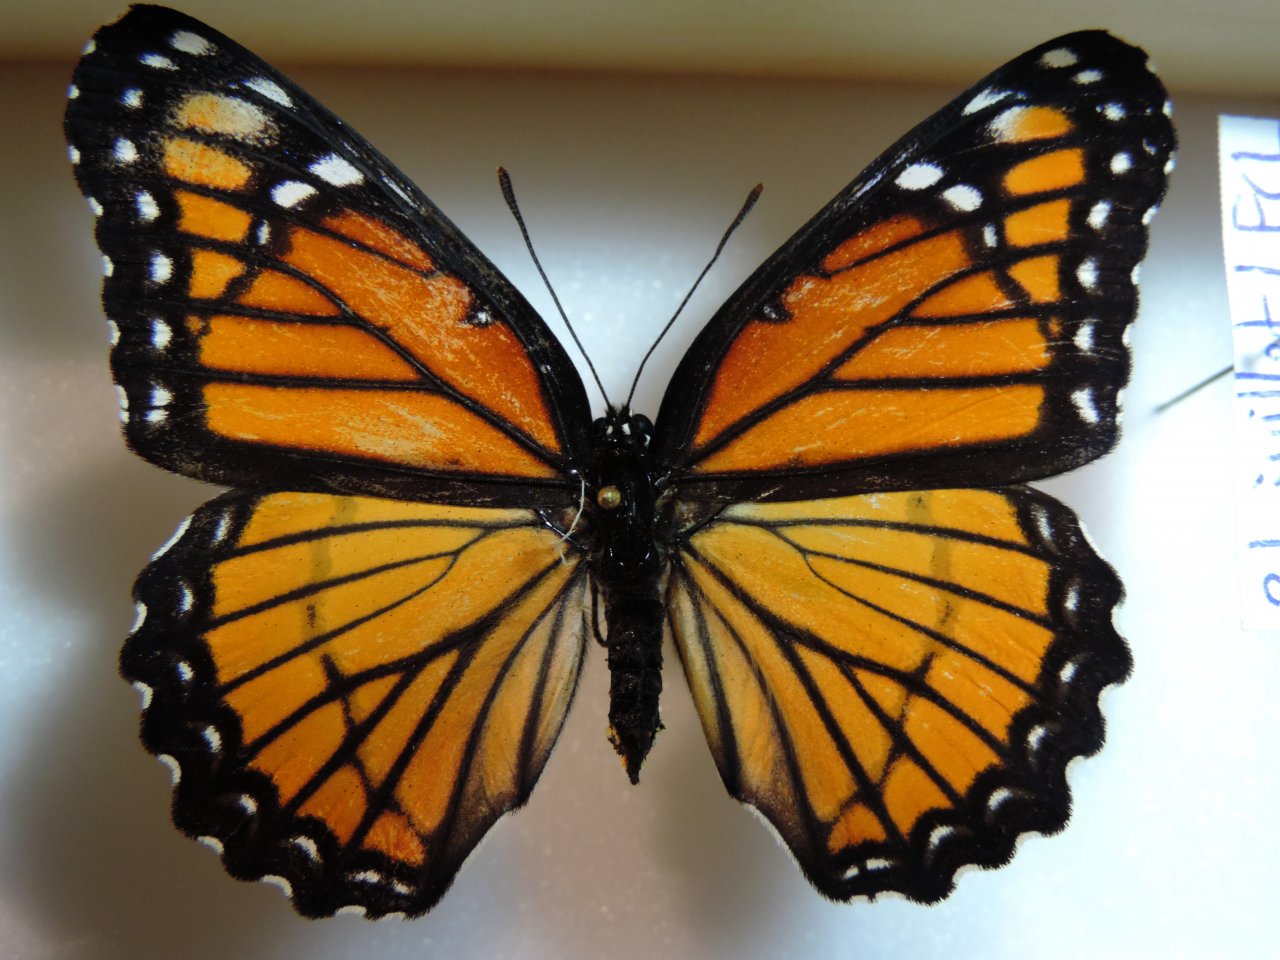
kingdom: Animalia
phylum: Arthropoda
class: Insecta
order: Lepidoptera
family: Nymphalidae
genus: Limenitis
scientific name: Limenitis archippus
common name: Viceroy
